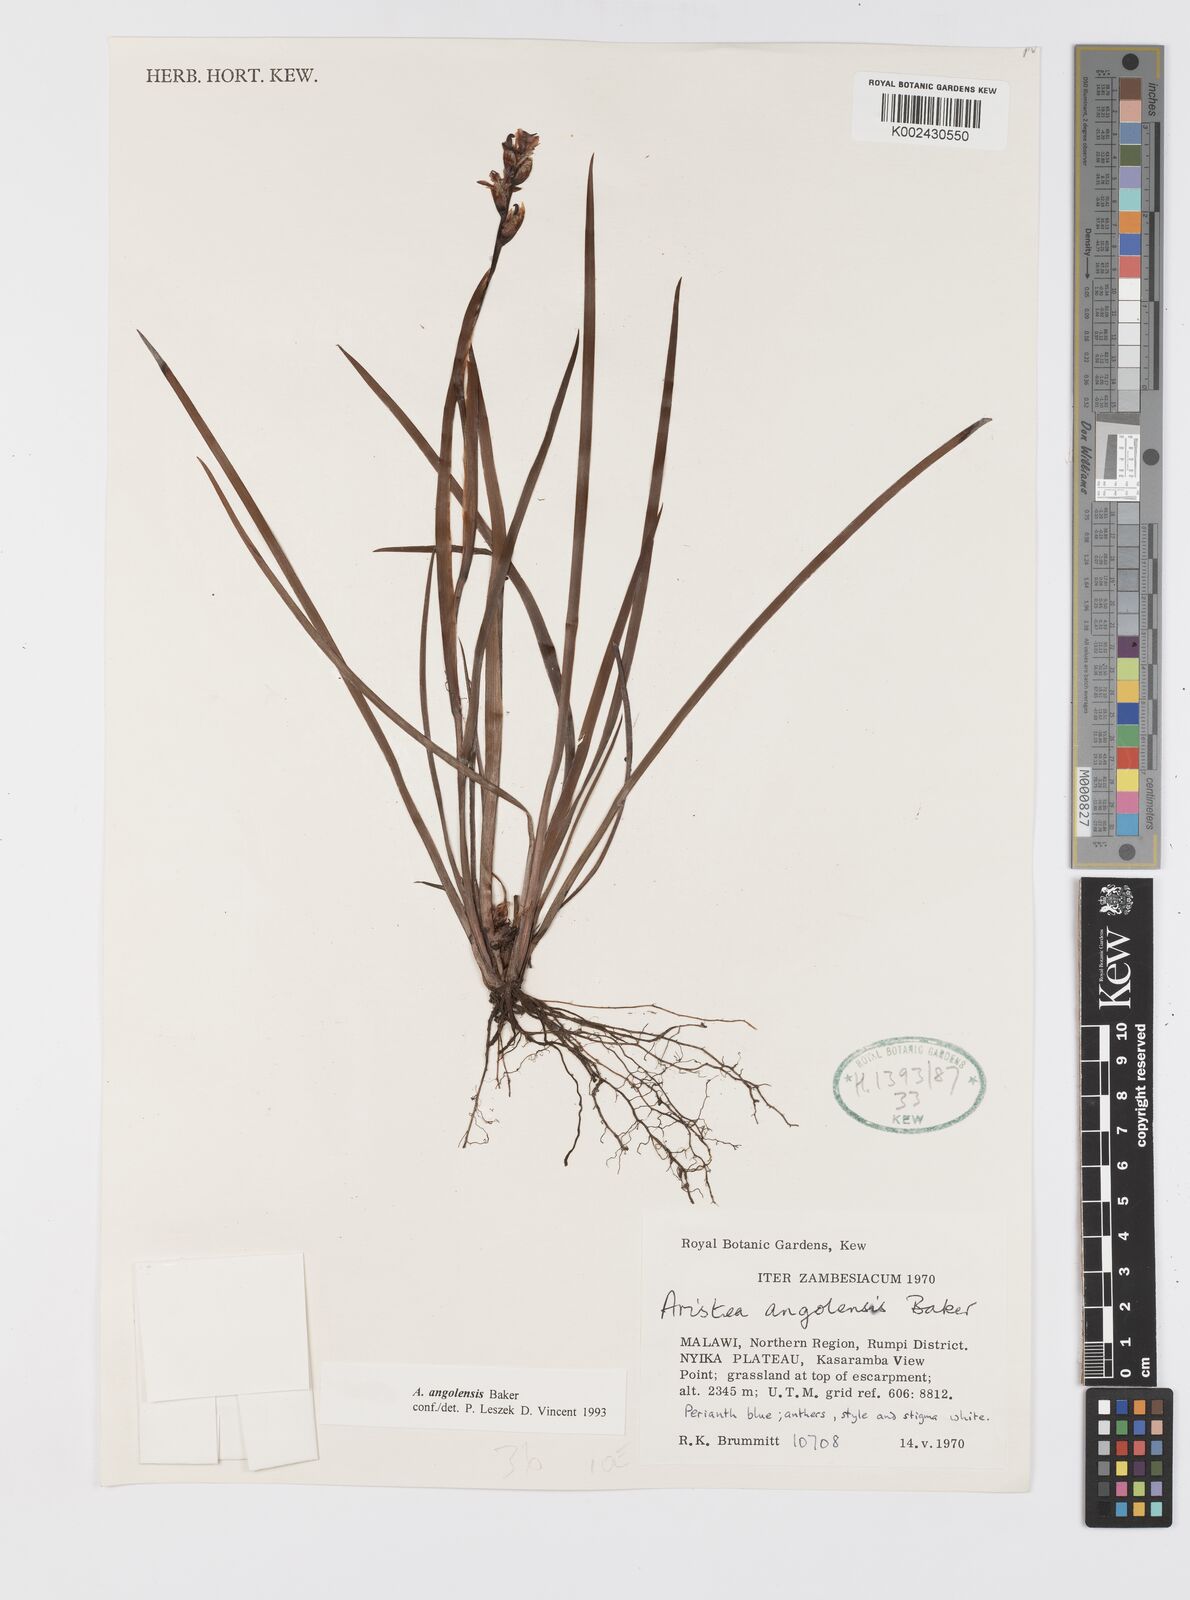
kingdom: Plantae
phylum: Tracheophyta
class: Liliopsida
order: Asparagales
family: Iridaceae
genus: Aristea
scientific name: Aristea angolensis
